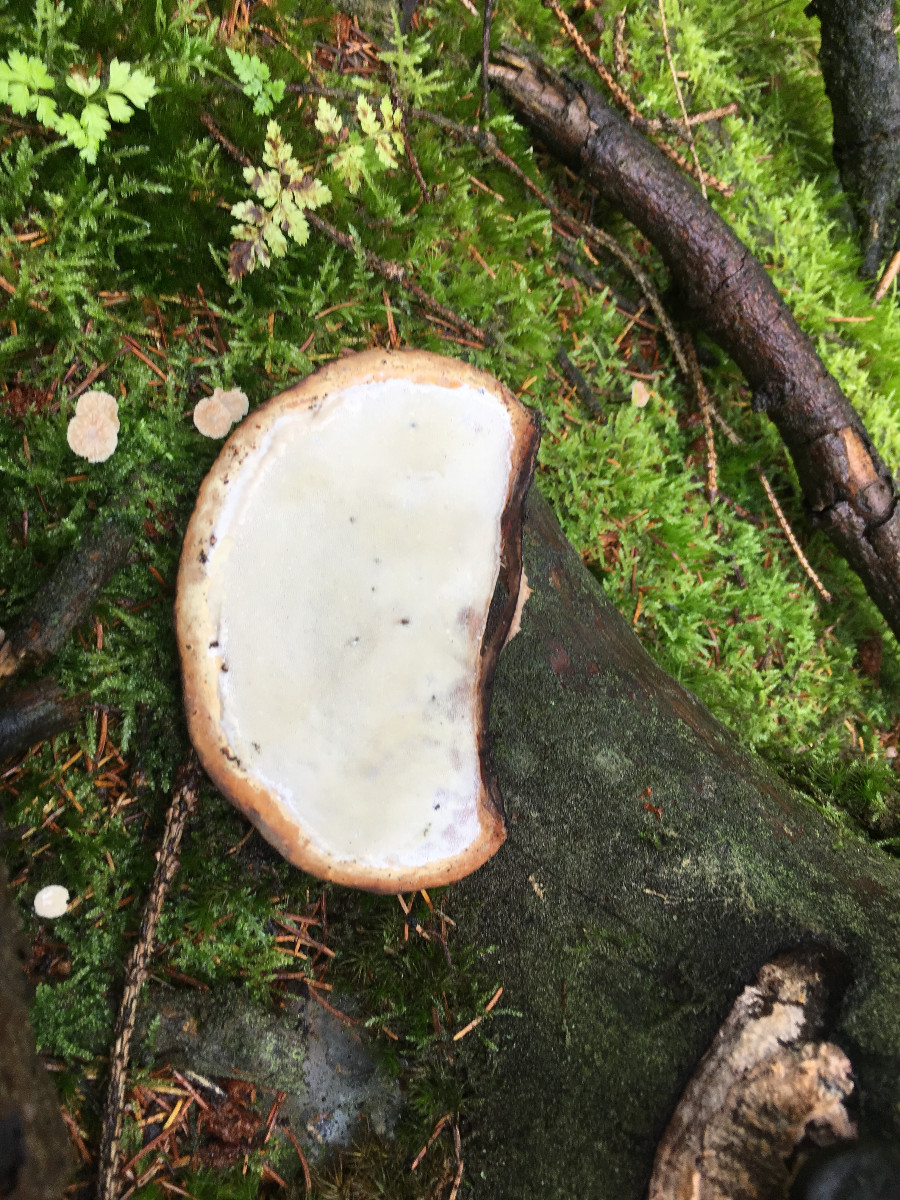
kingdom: Fungi
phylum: Basidiomycota
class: Agaricomycetes
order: Polyporales
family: Fomitopsidaceae
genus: Fomitopsis
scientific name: Fomitopsis pinicola
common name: randbæltet hovporesvamp
